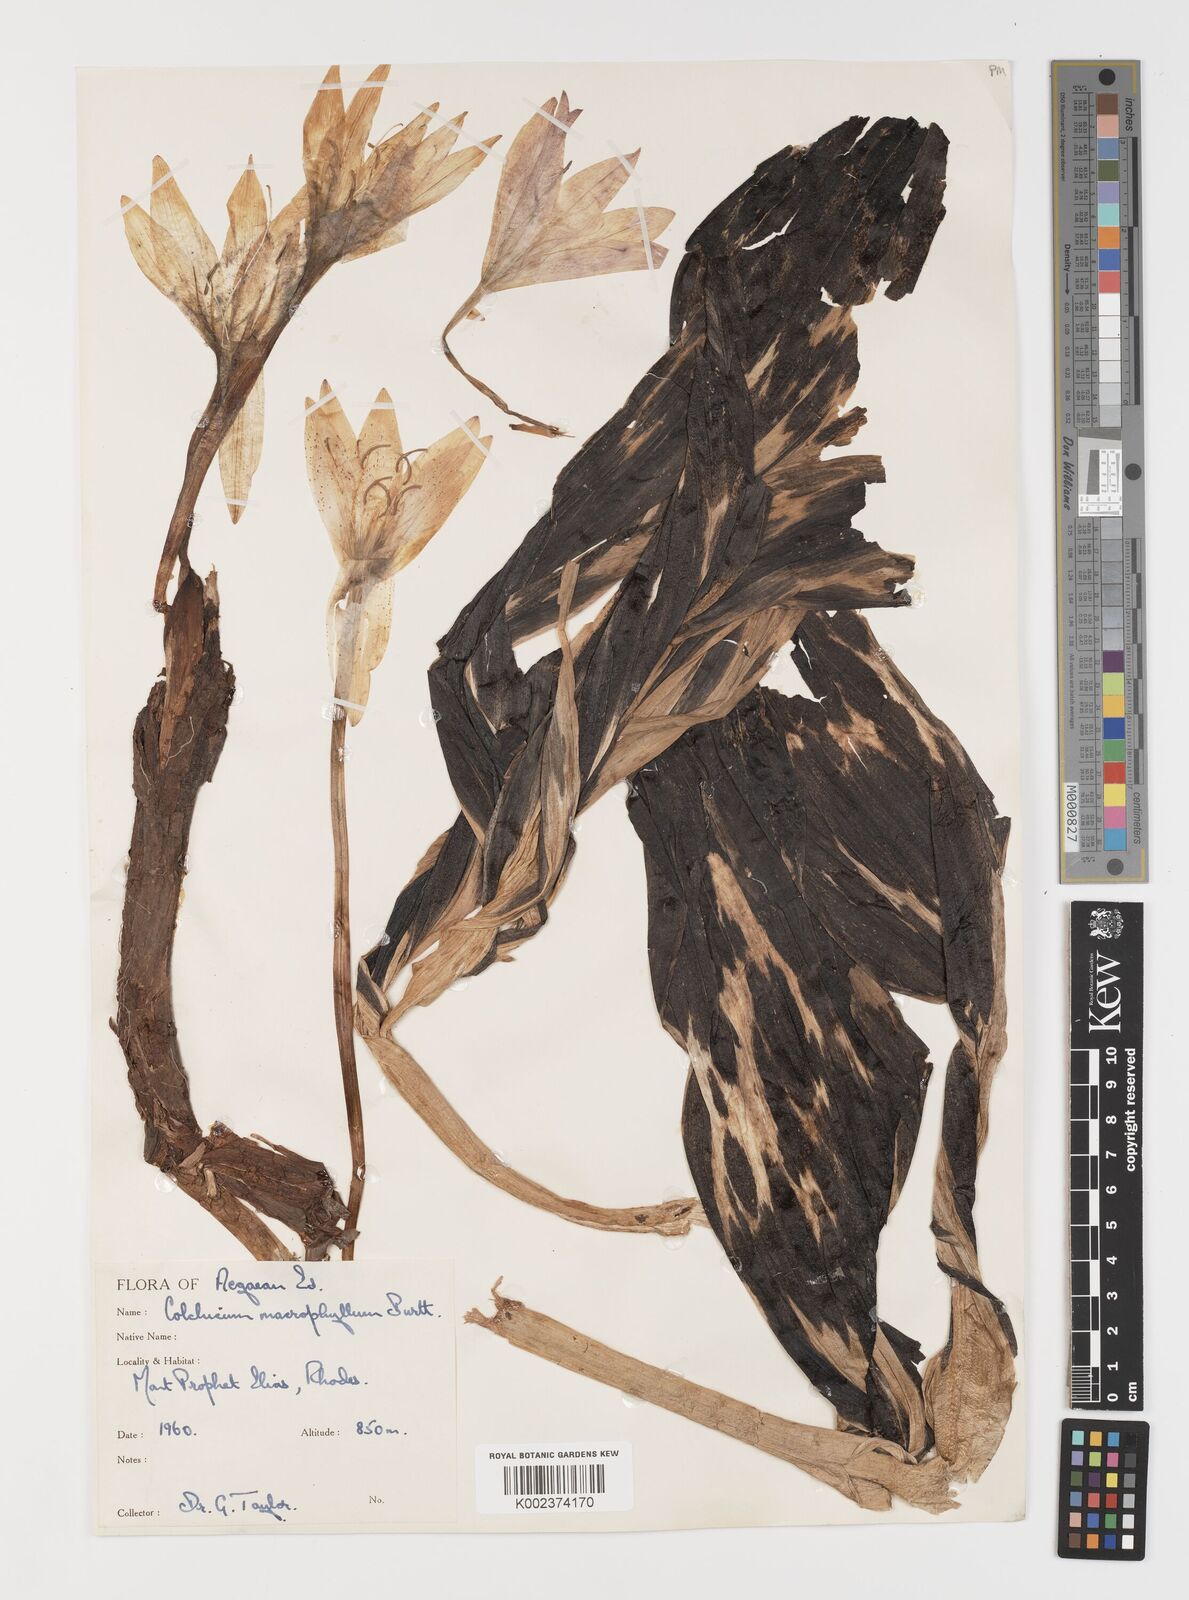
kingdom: Plantae
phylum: Tracheophyta
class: Liliopsida
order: Liliales
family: Colchicaceae
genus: Colchicum
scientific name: Colchicum macrophyllum
